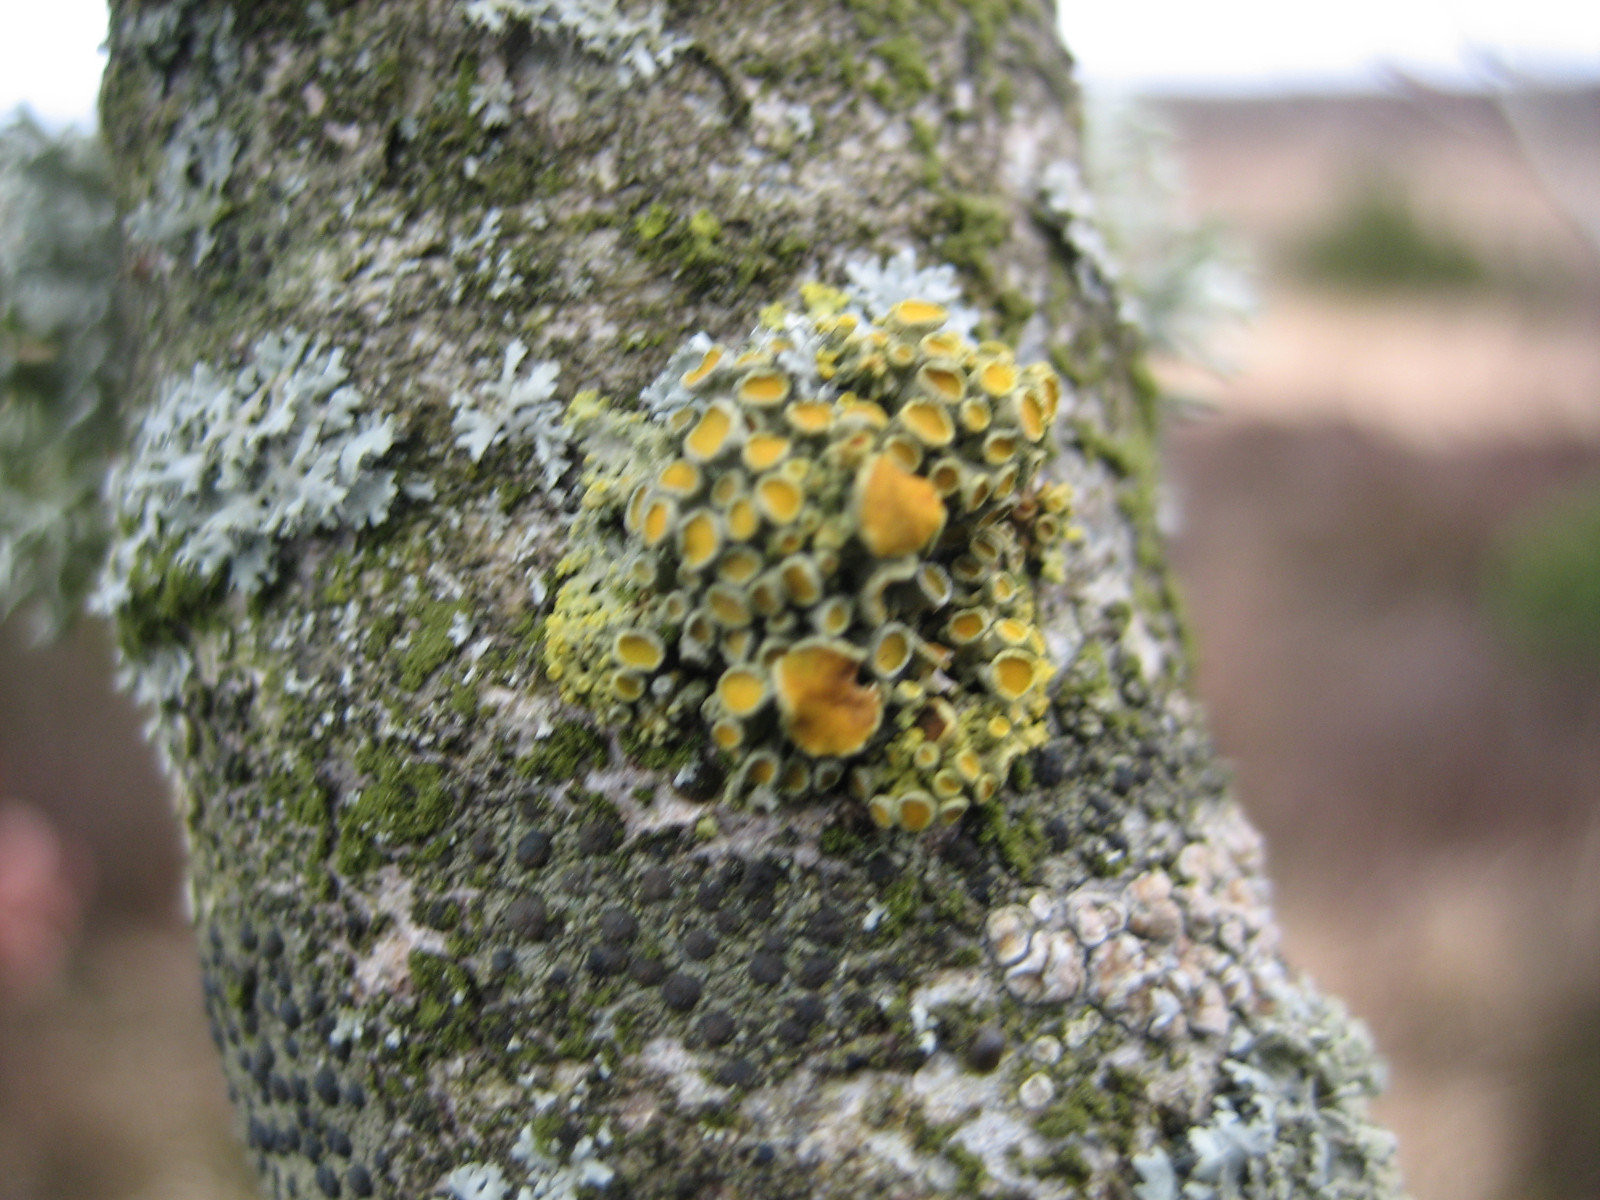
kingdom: Fungi
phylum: Ascomycota
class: Lecanoromycetes
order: Teloschistales
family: Teloschistaceae
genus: Polycauliona
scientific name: Polycauliona polycarpa
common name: mangefrugtet orangelav
